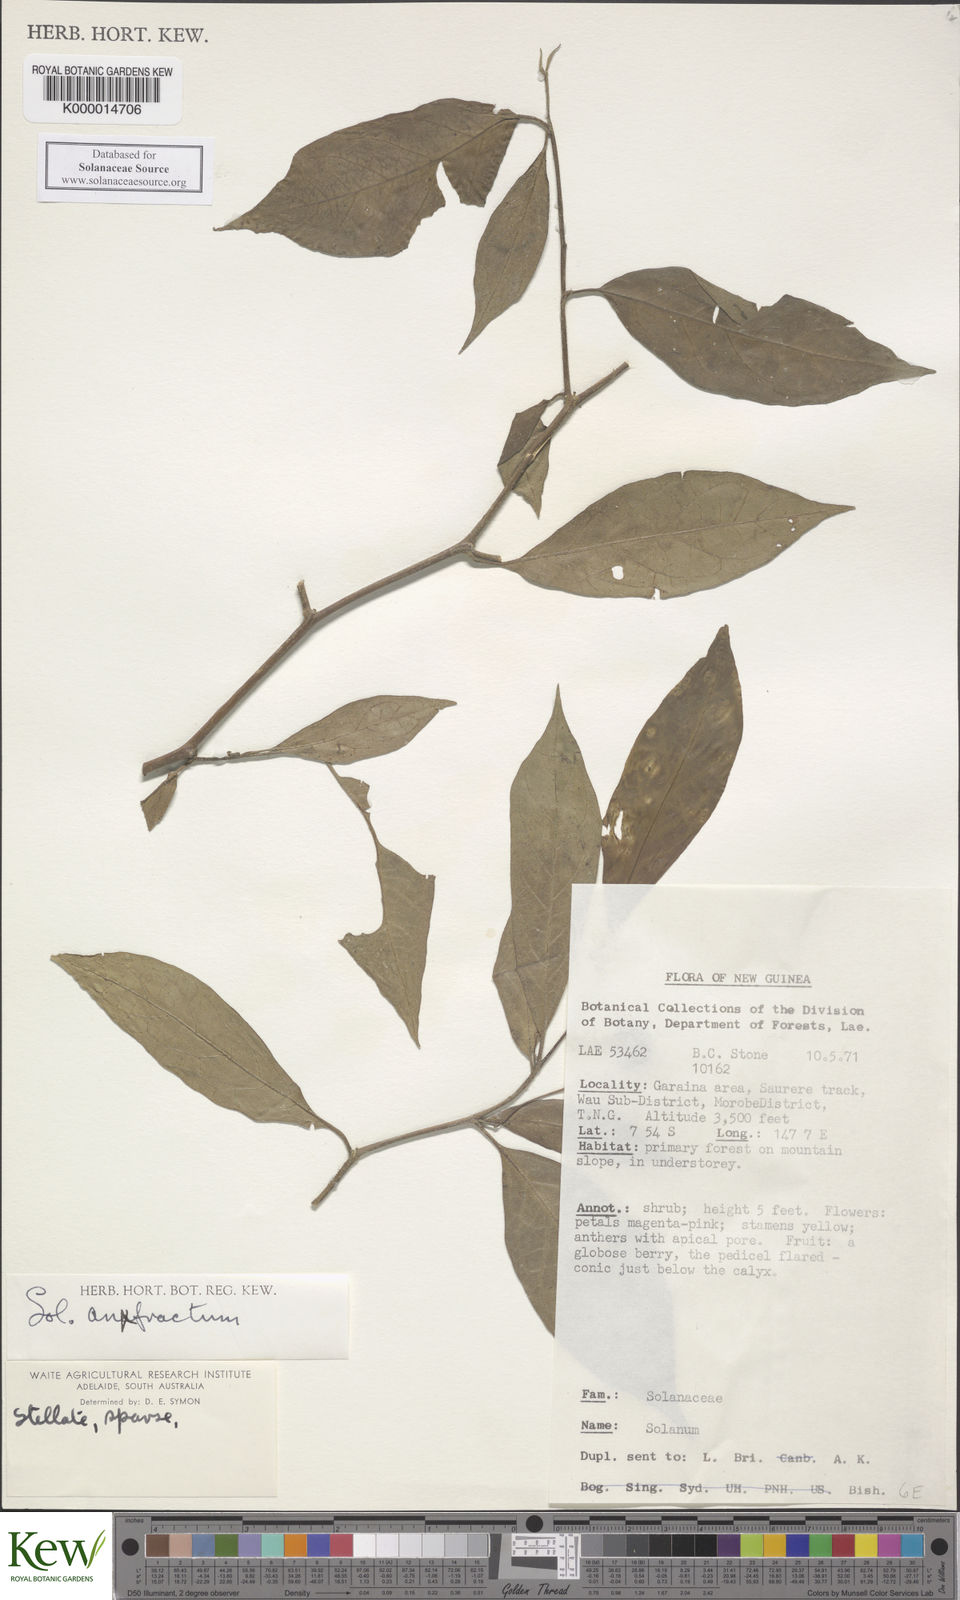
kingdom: Plantae
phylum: Tracheophyta
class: Magnoliopsida
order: Solanales
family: Solanaceae
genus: Solanum
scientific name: Solanum anfractum
